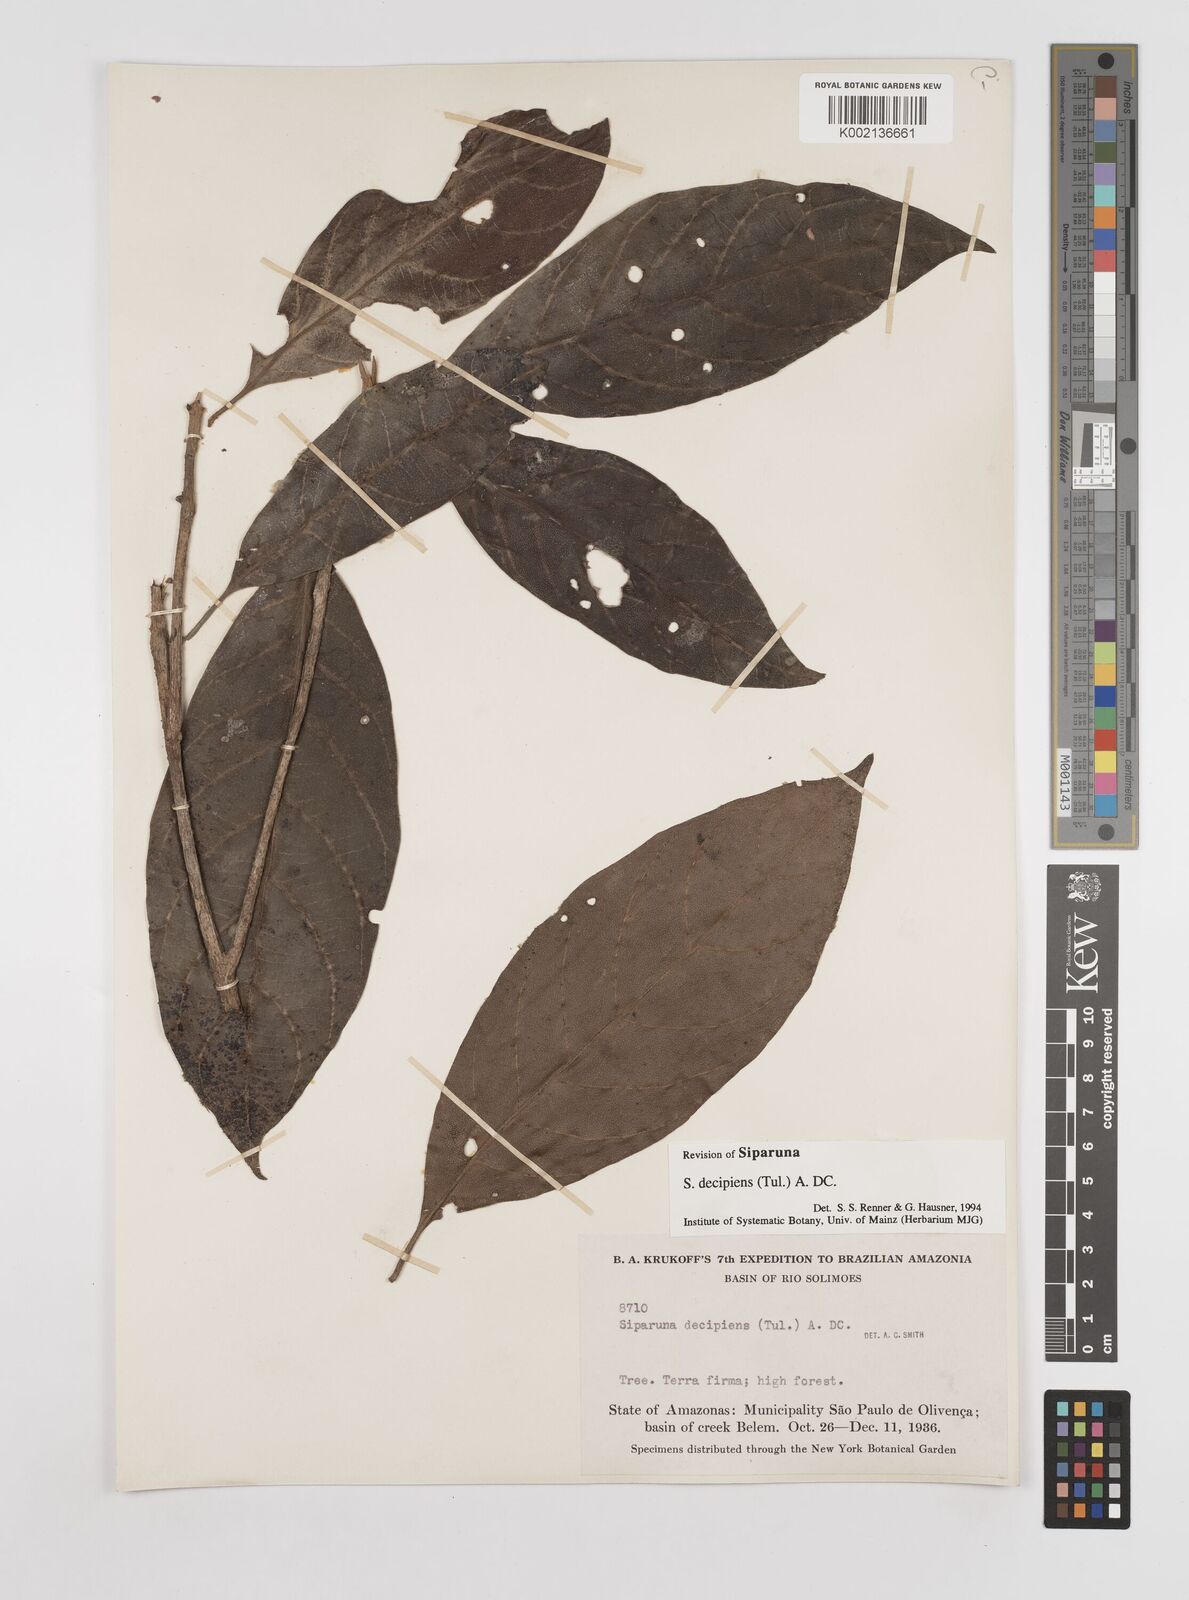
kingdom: Plantae
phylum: Tracheophyta
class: Magnoliopsida
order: Laurales
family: Siparunaceae
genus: Siparuna
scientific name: Siparuna decipiens
